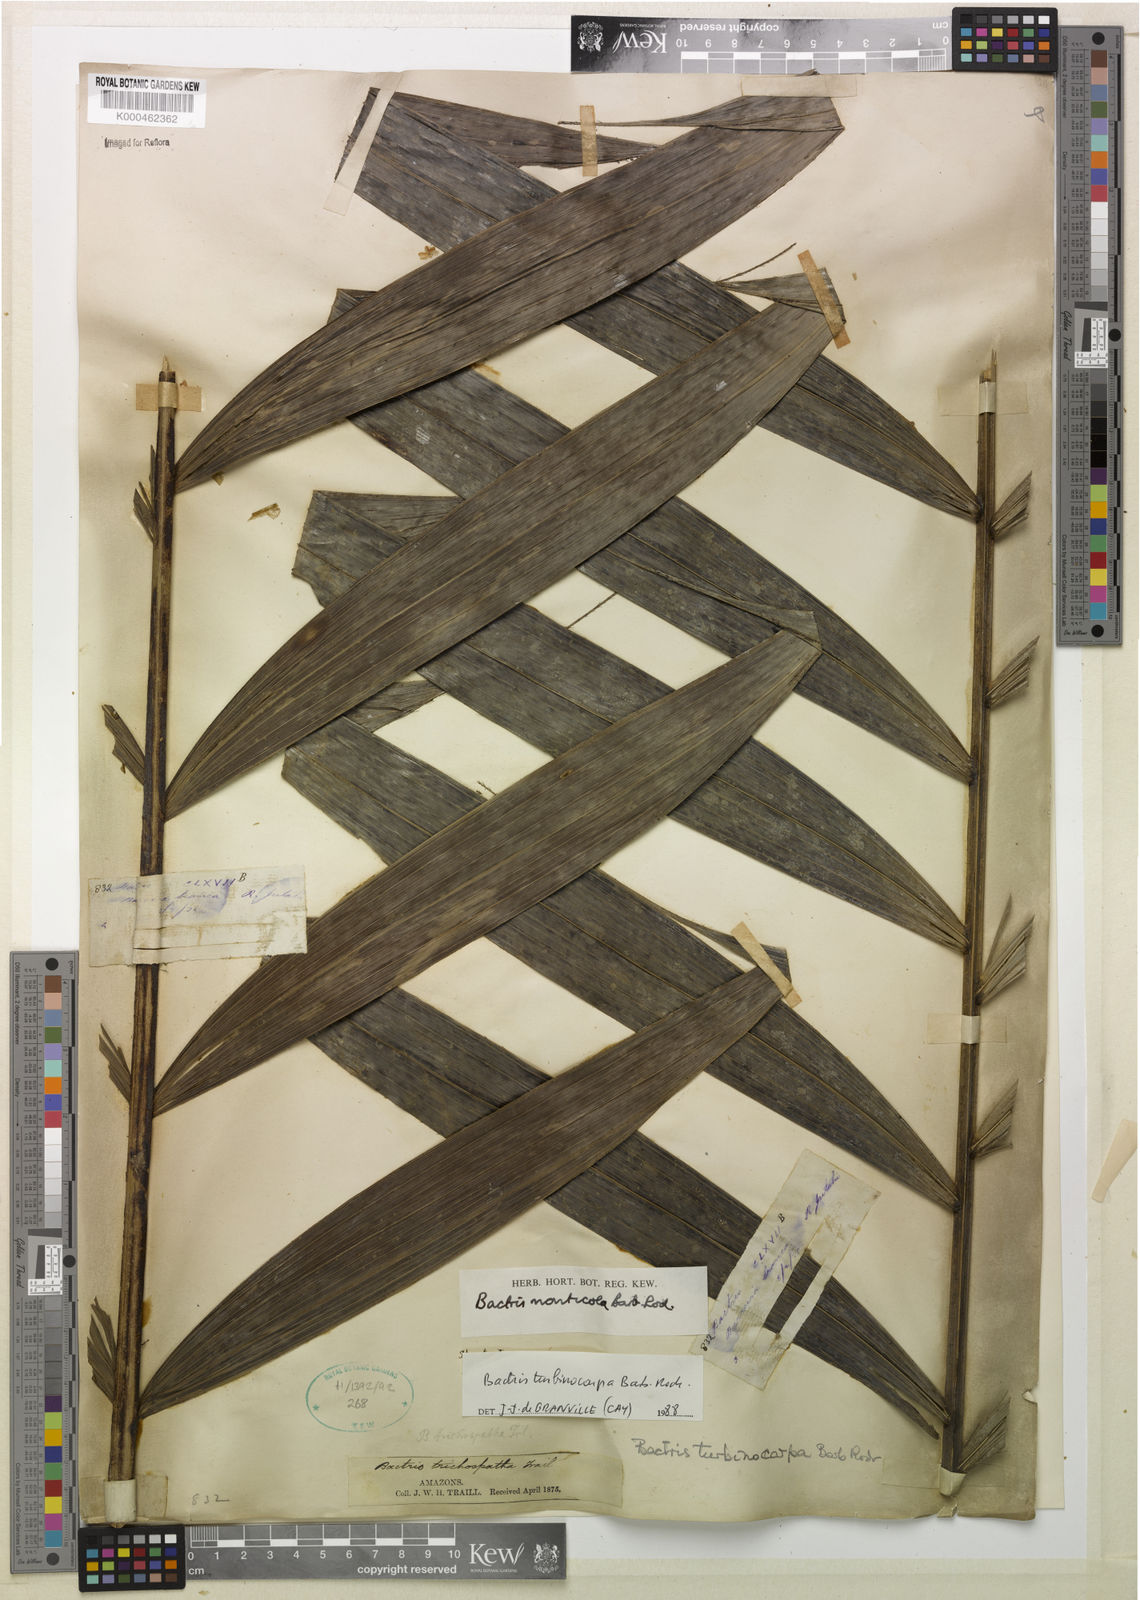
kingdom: Plantae
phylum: Tracheophyta
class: Liliopsida
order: Arecales
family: Arecaceae
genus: Bactris
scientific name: Bactris turbinocarpa
